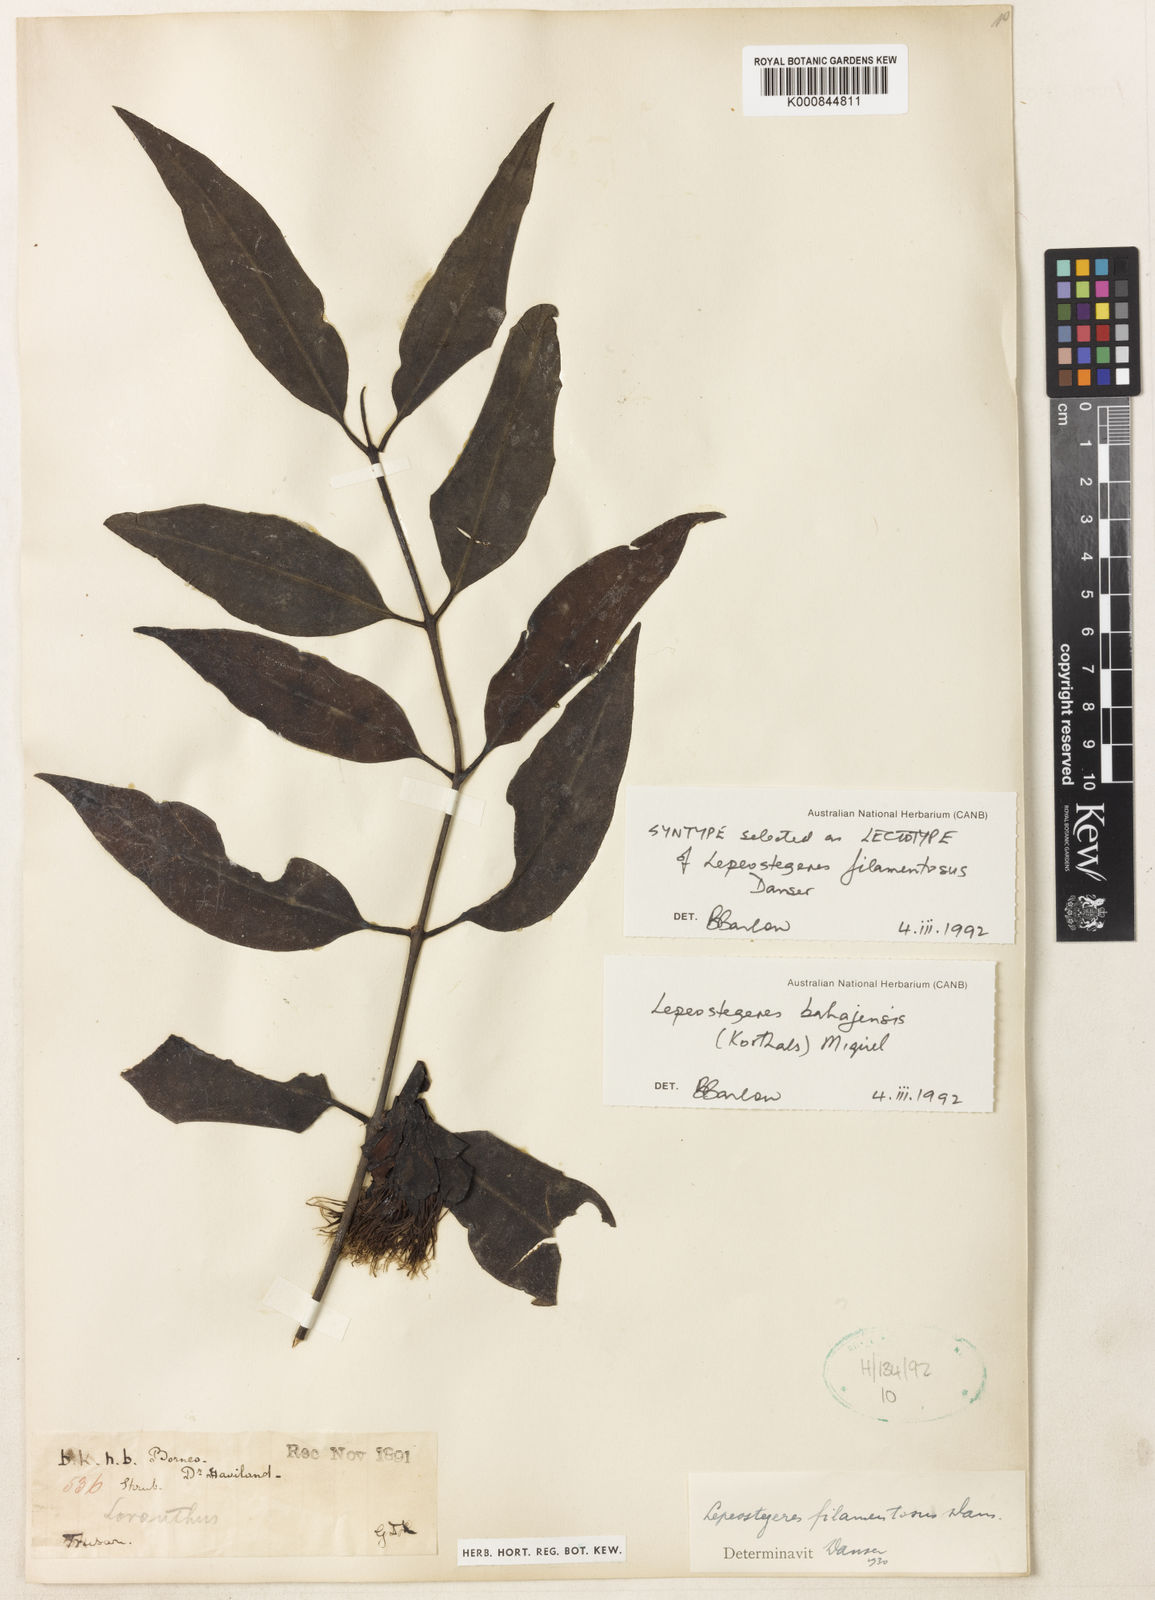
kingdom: Plantae
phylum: Tracheophyta
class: Magnoliopsida
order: Santalales
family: Loranthaceae
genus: Lepeostegeres
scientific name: Lepeostegeres bahajensis
